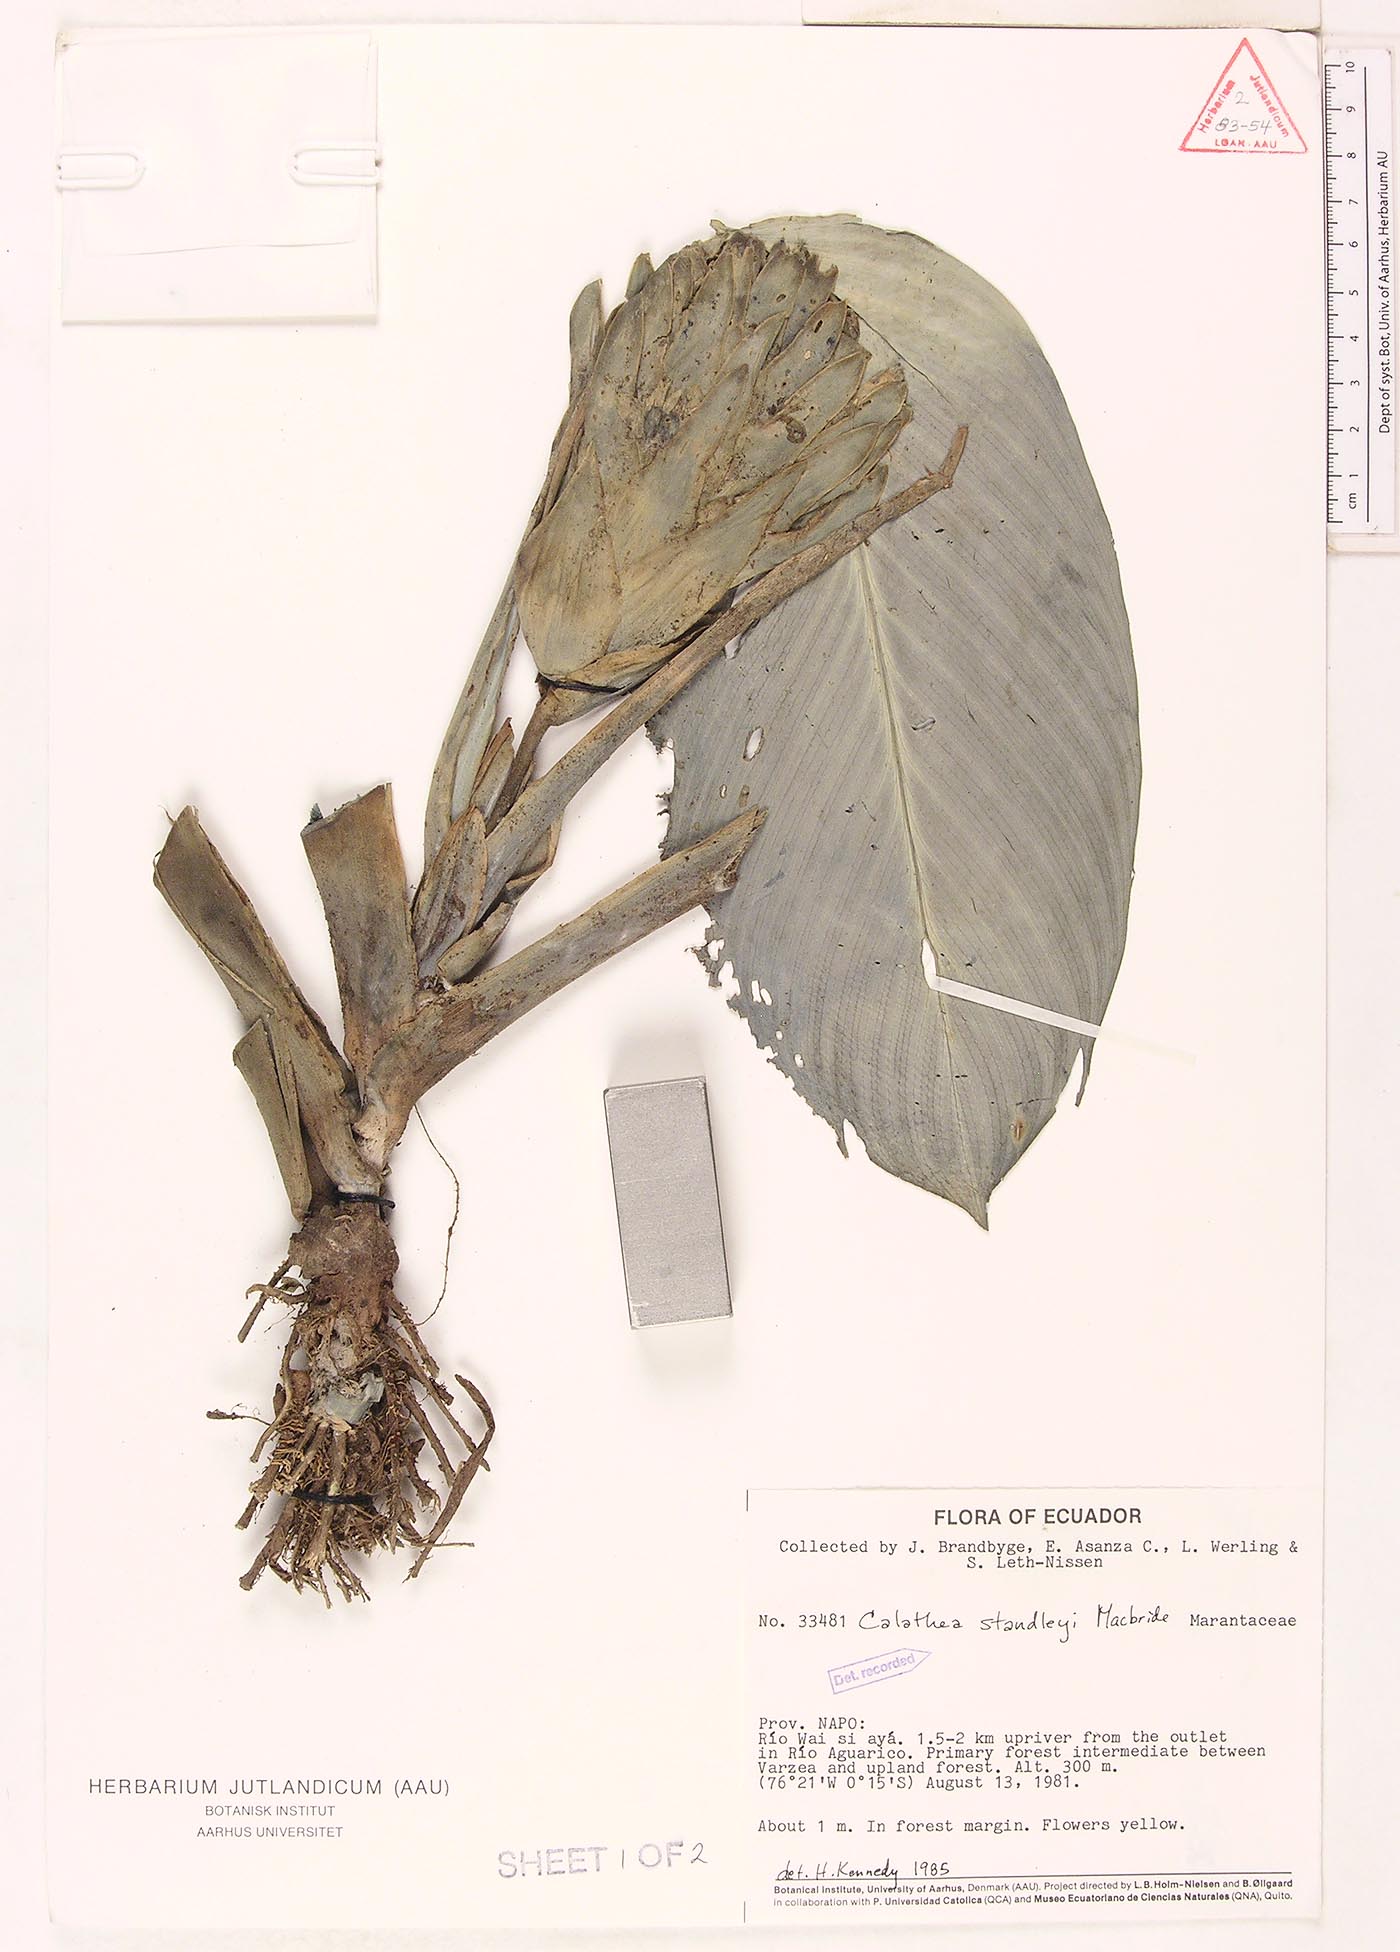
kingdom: Plantae
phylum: Tracheophyta
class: Liliopsida
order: Zingiberales
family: Marantaceae
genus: Goeppertia
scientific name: Goeppertia standleyi
